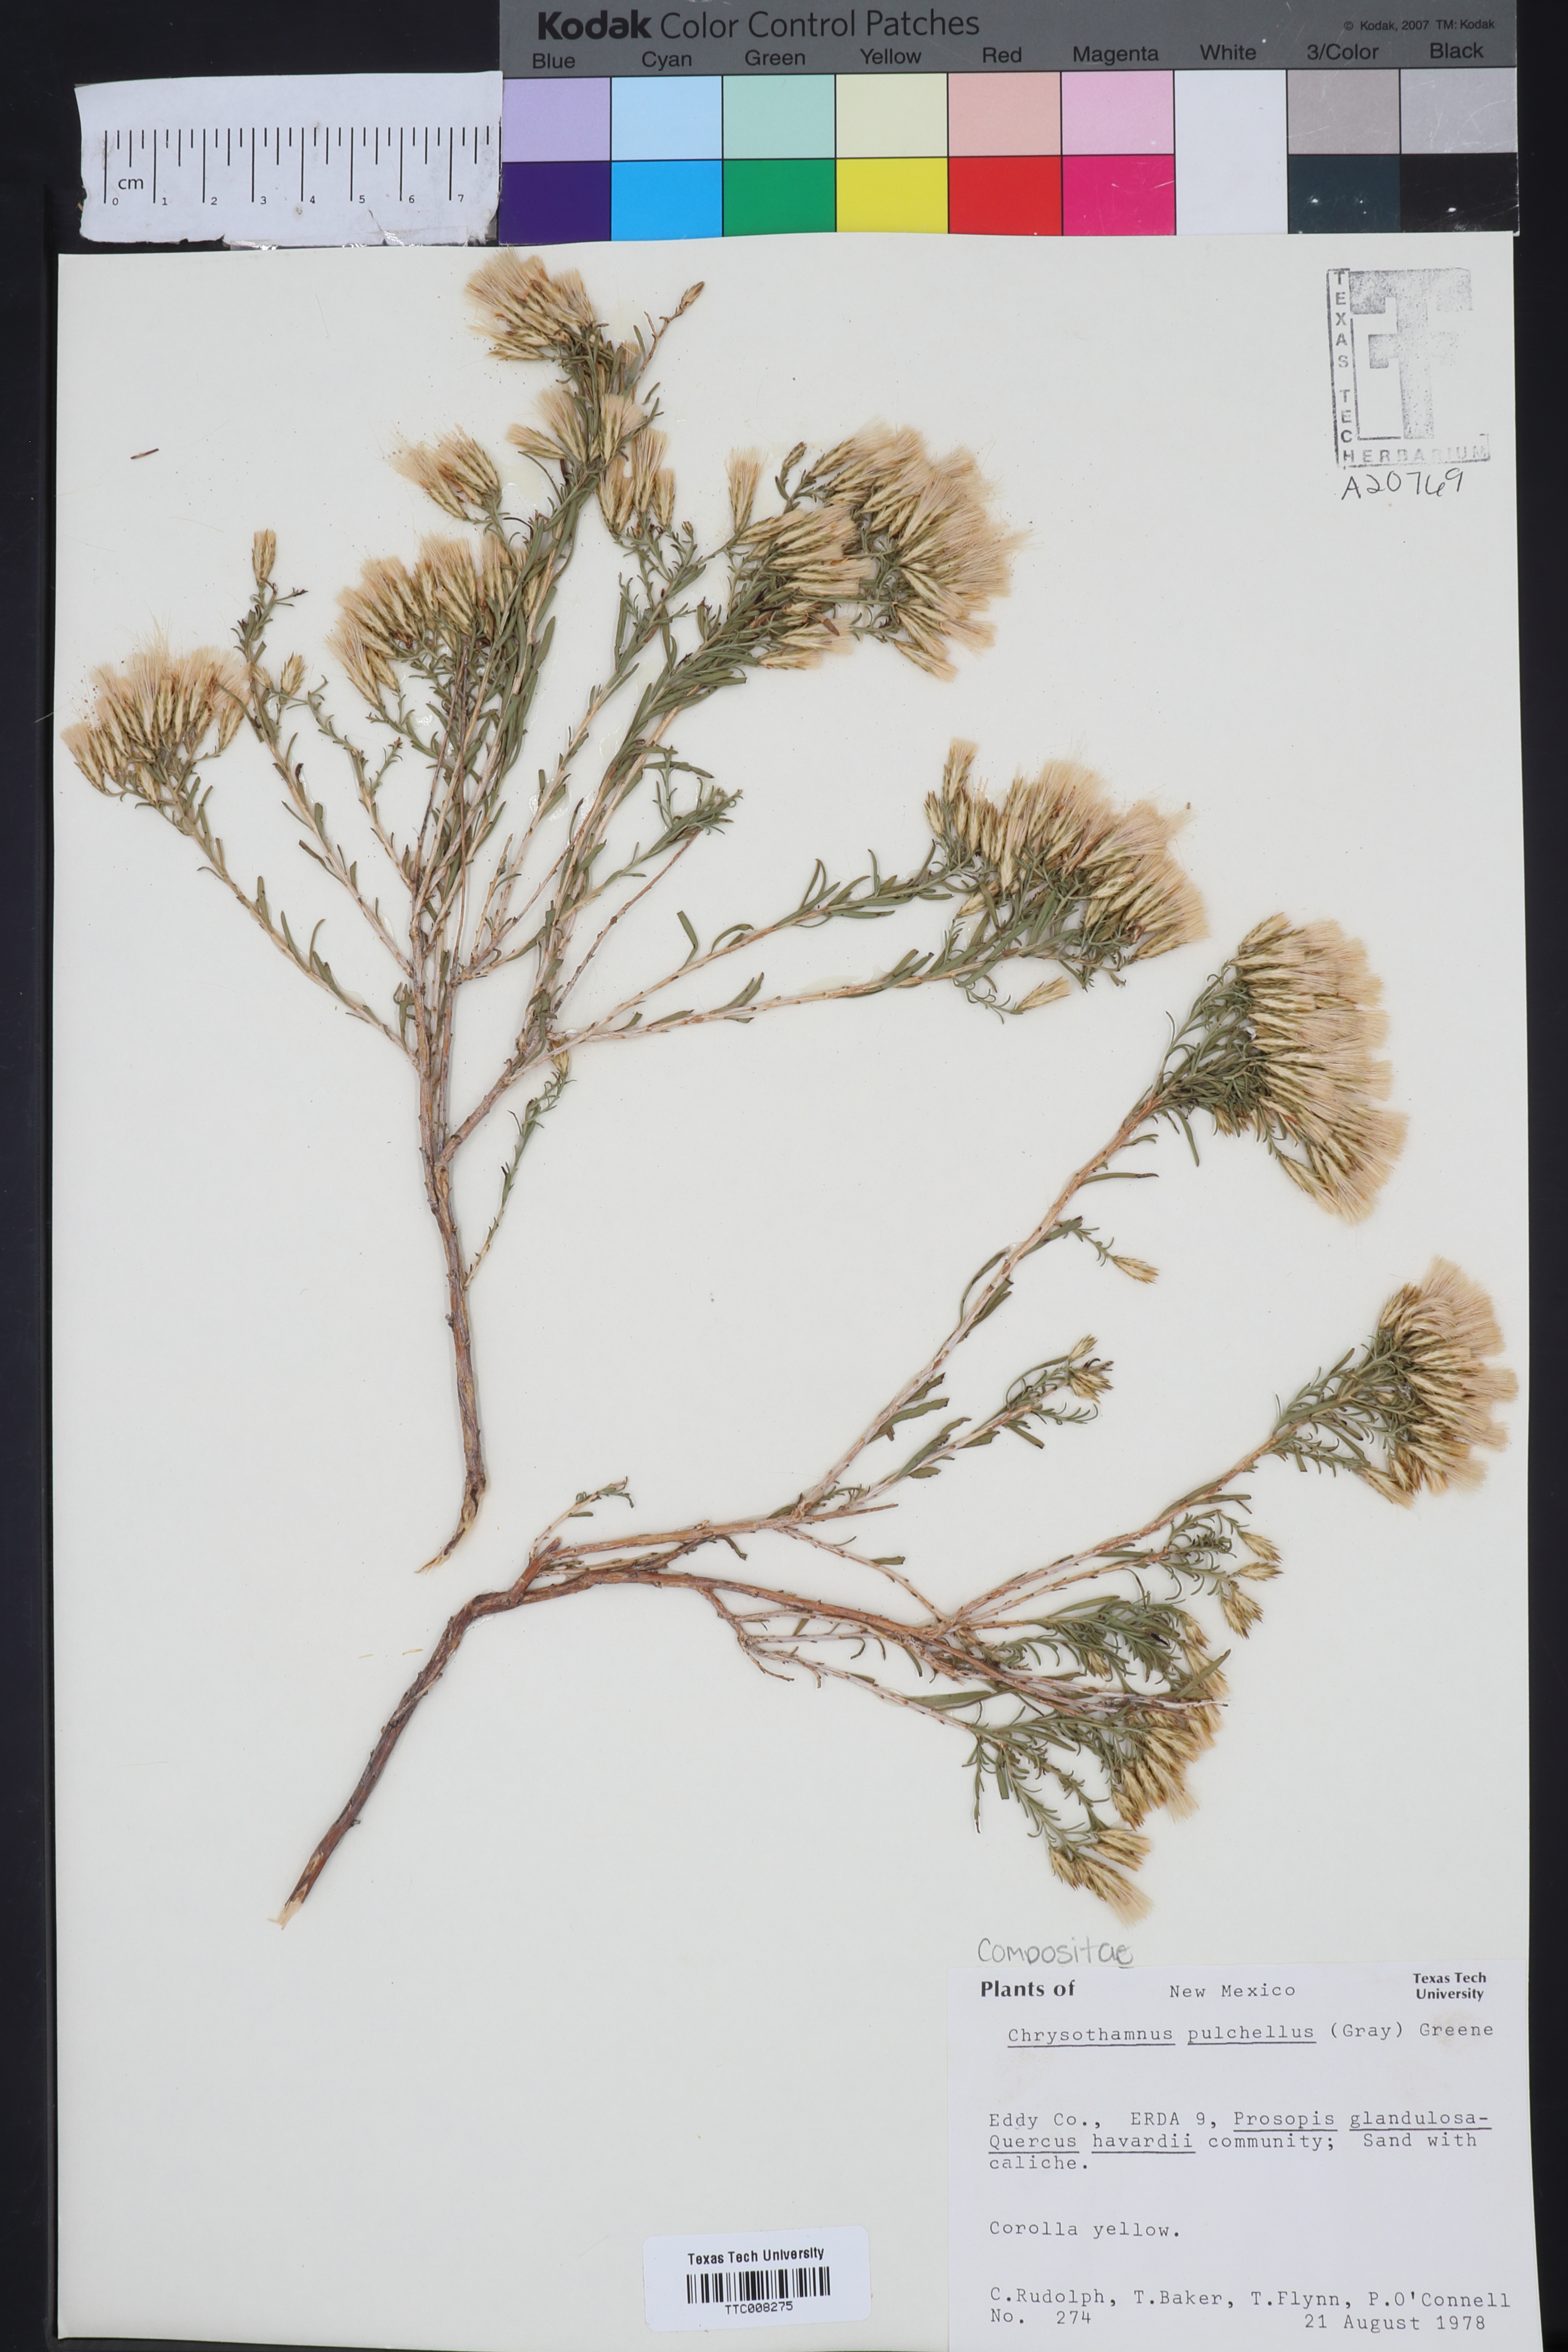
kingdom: Plantae
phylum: Tracheophyta
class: Magnoliopsida
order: Asterales
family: Asteraceae
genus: Lorandersonia
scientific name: Lorandersonia pulchella
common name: Southwestern rabbitbrush
